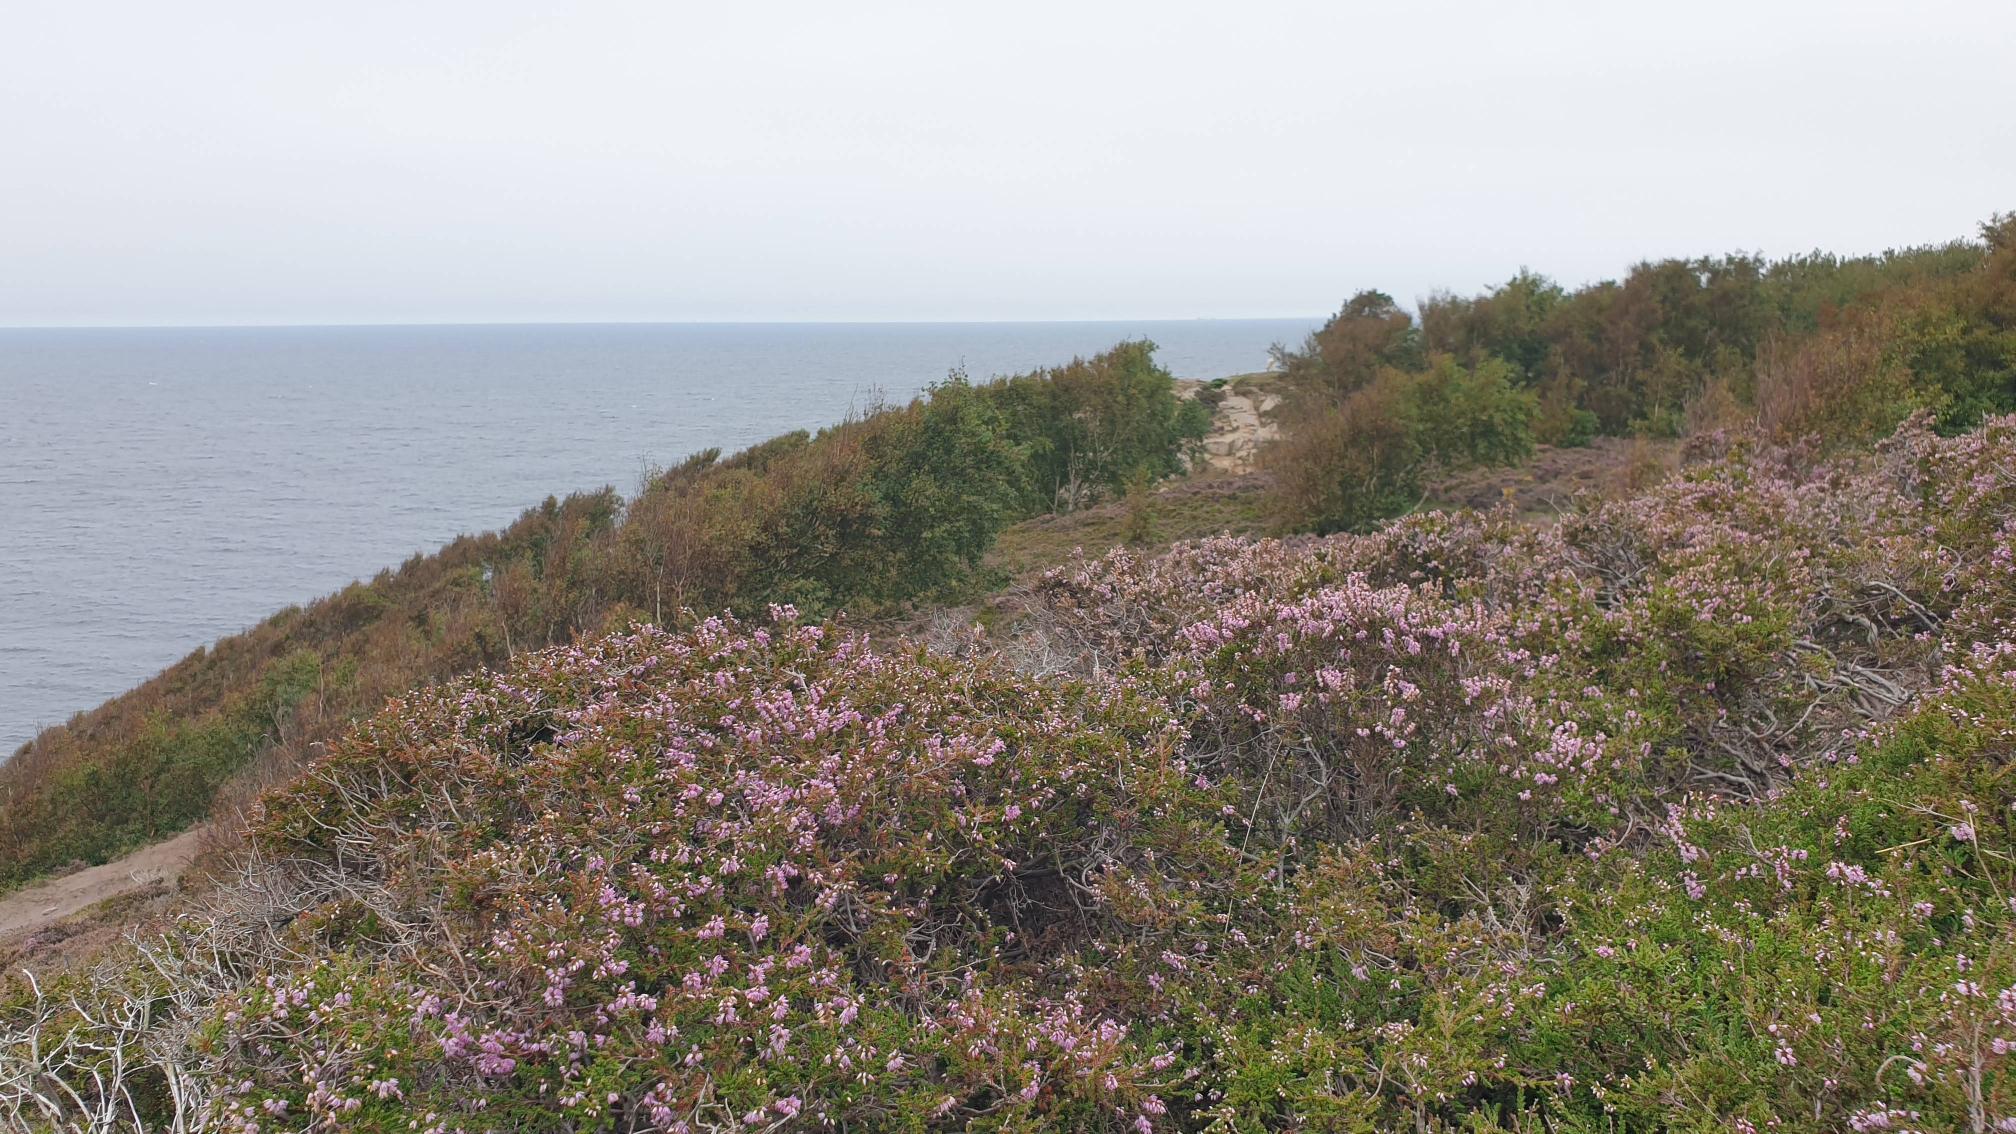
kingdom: Plantae
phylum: Tracheophyta
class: Magnoliopsida
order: Ericales
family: Ericaceae
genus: Calluna
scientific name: Calluna vulgaris
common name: Hedelyng
